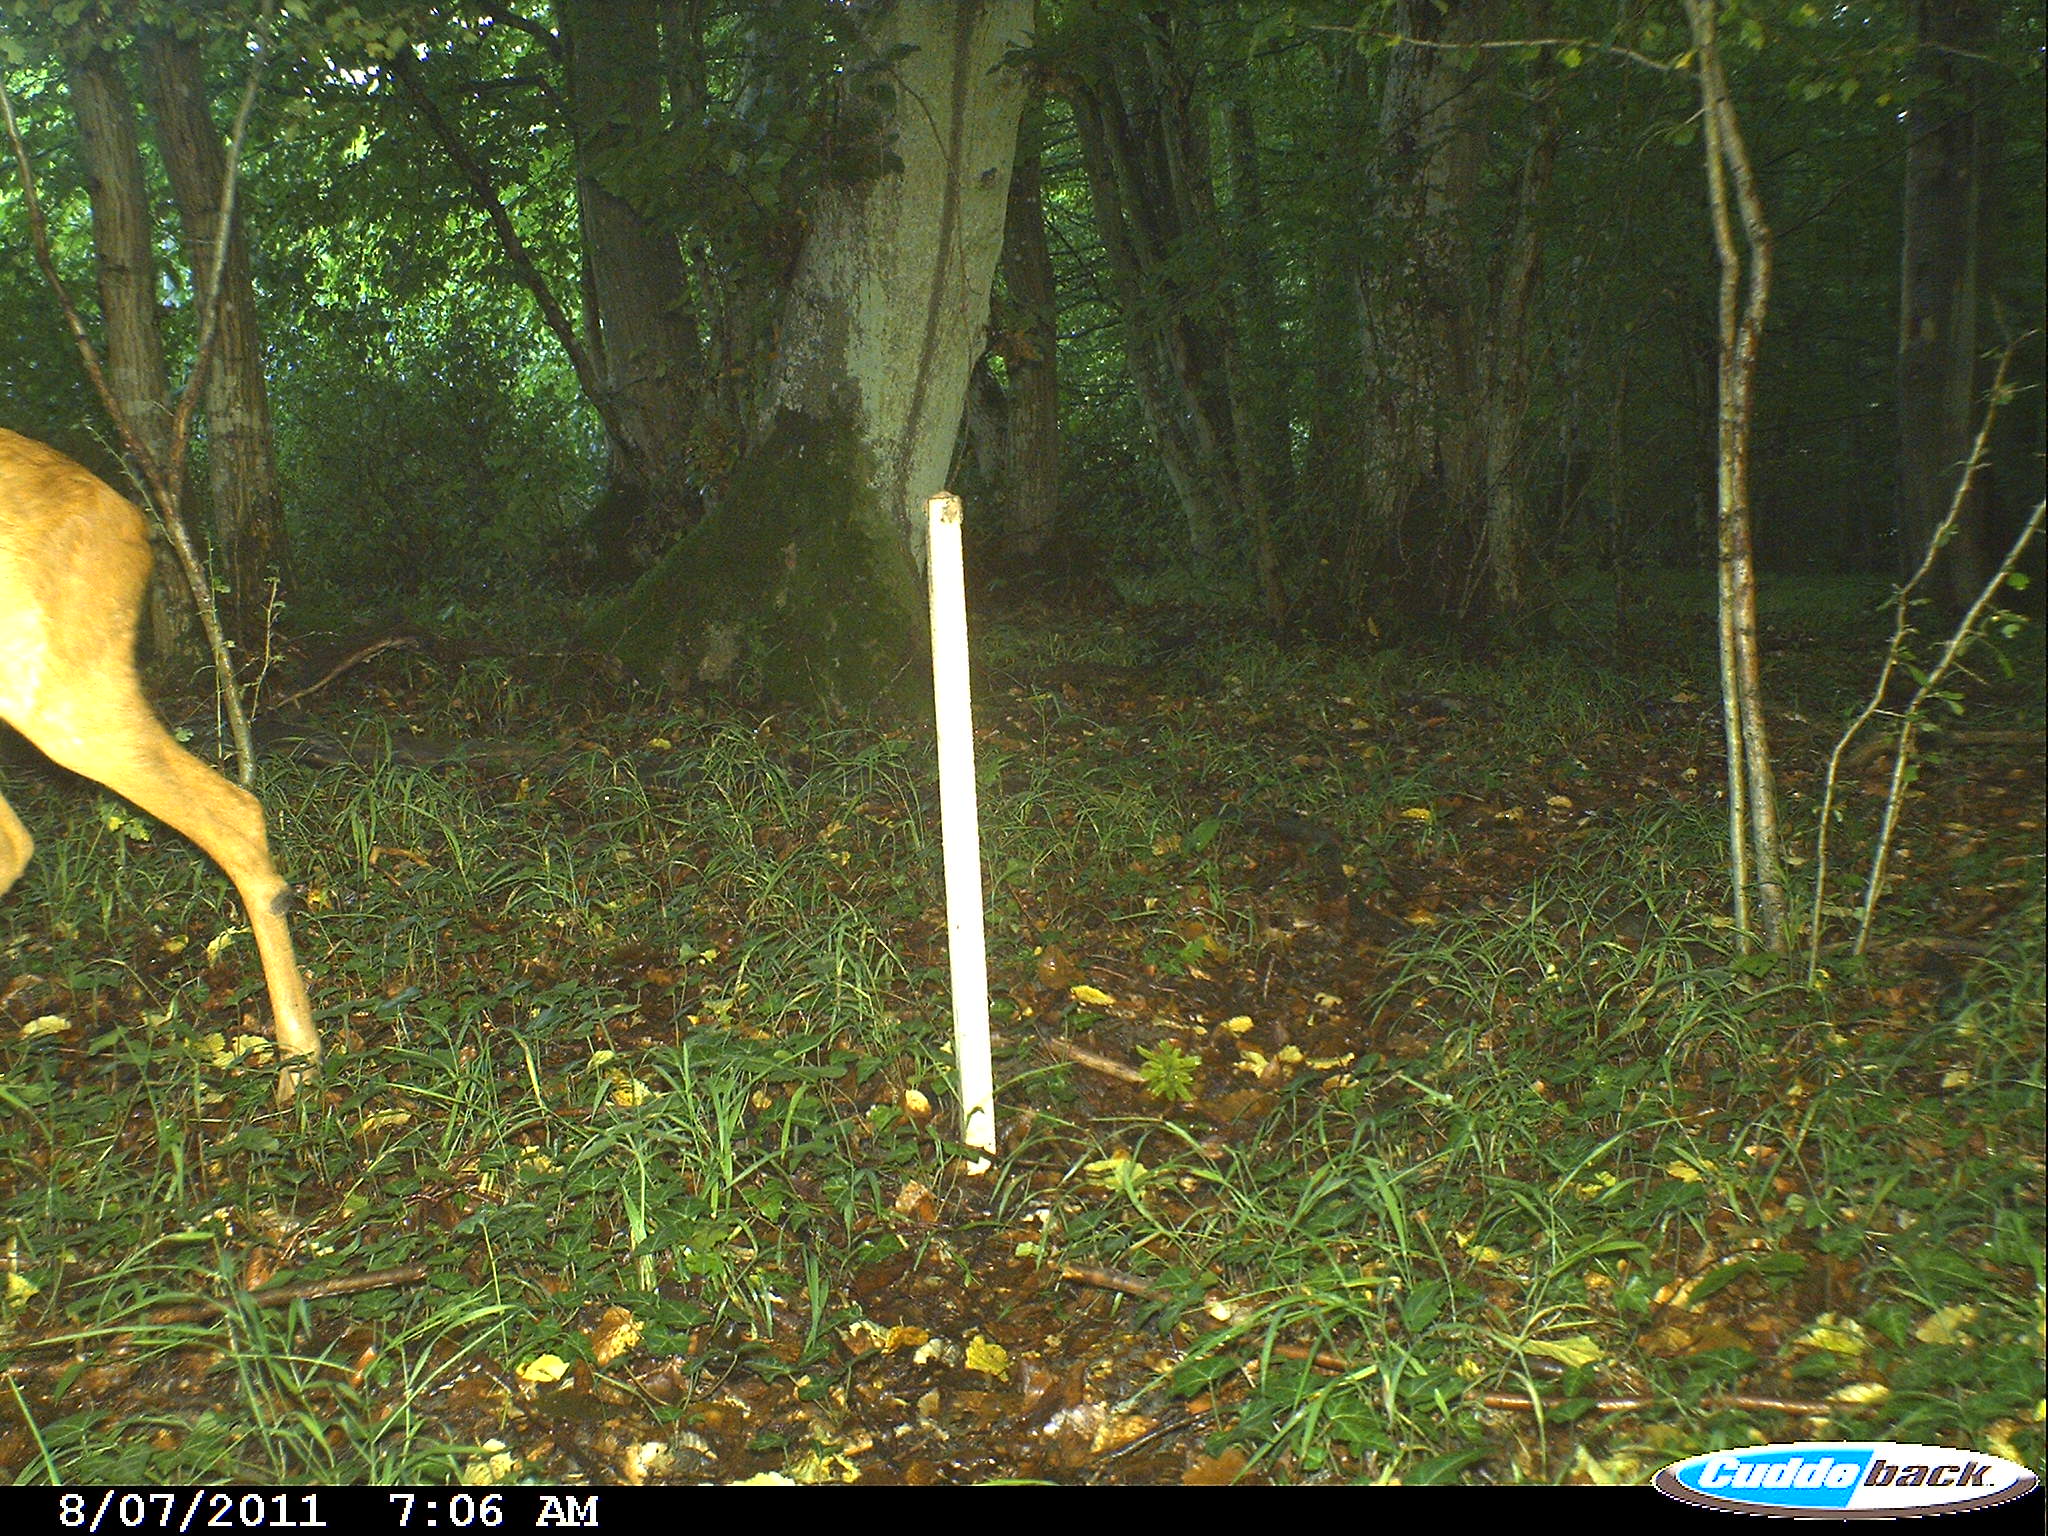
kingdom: Animalia
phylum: Chordata
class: Mammalia
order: Artiodactyla
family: Cervidae
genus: Capreolus
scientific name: Capreolus capreolus
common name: Western roe deer
